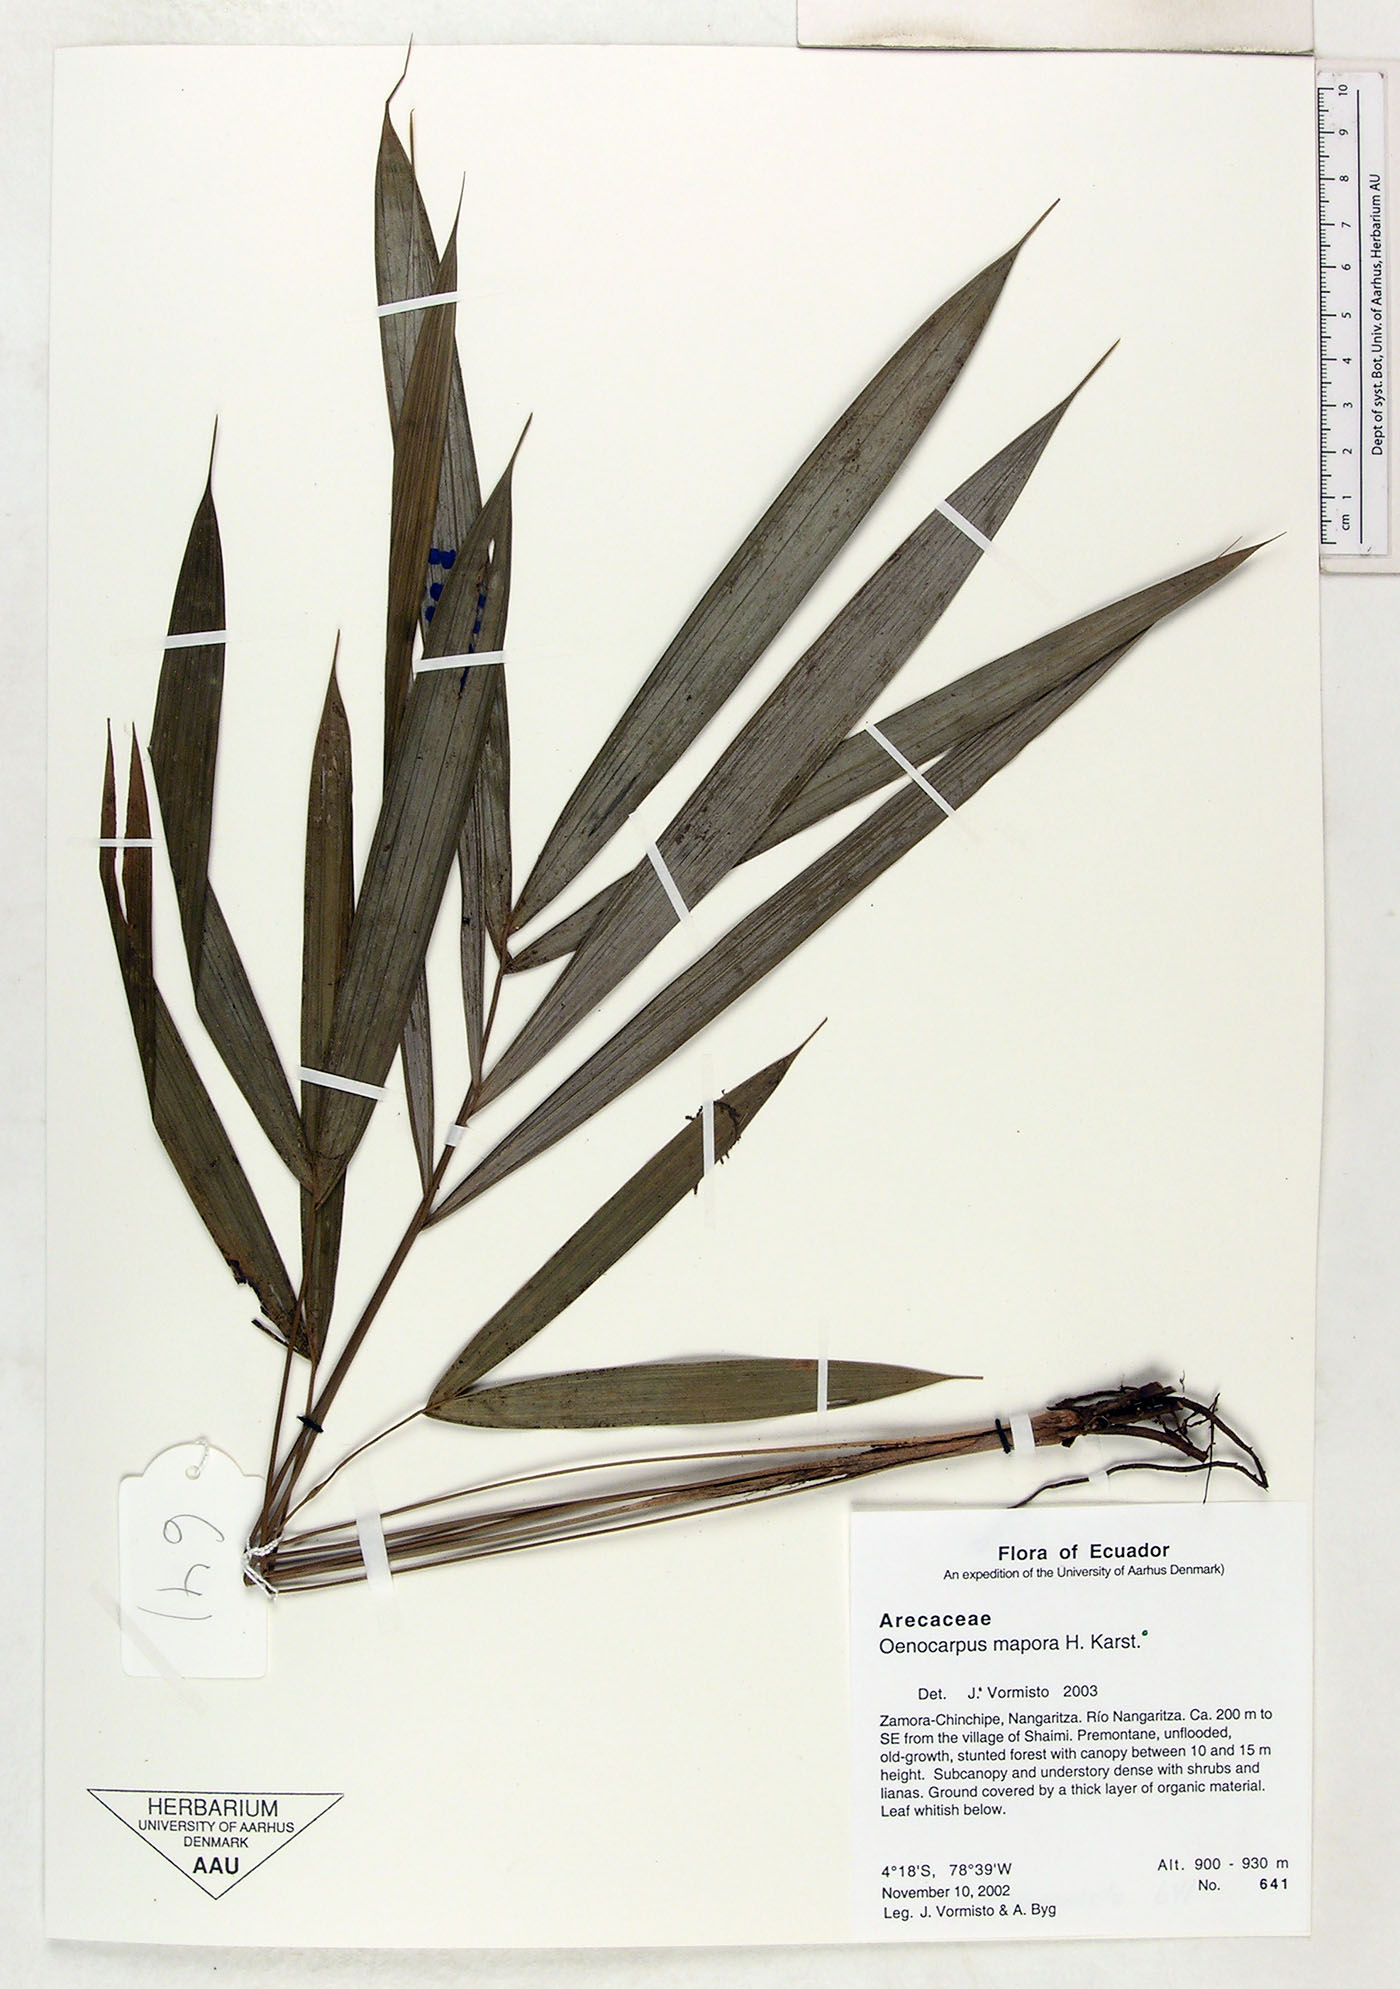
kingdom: Plantae
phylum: Tracheophyta
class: Liliopsida
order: Arecales
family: Arecaceae
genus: Oenocarpus
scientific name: Oenocarpus mapora
